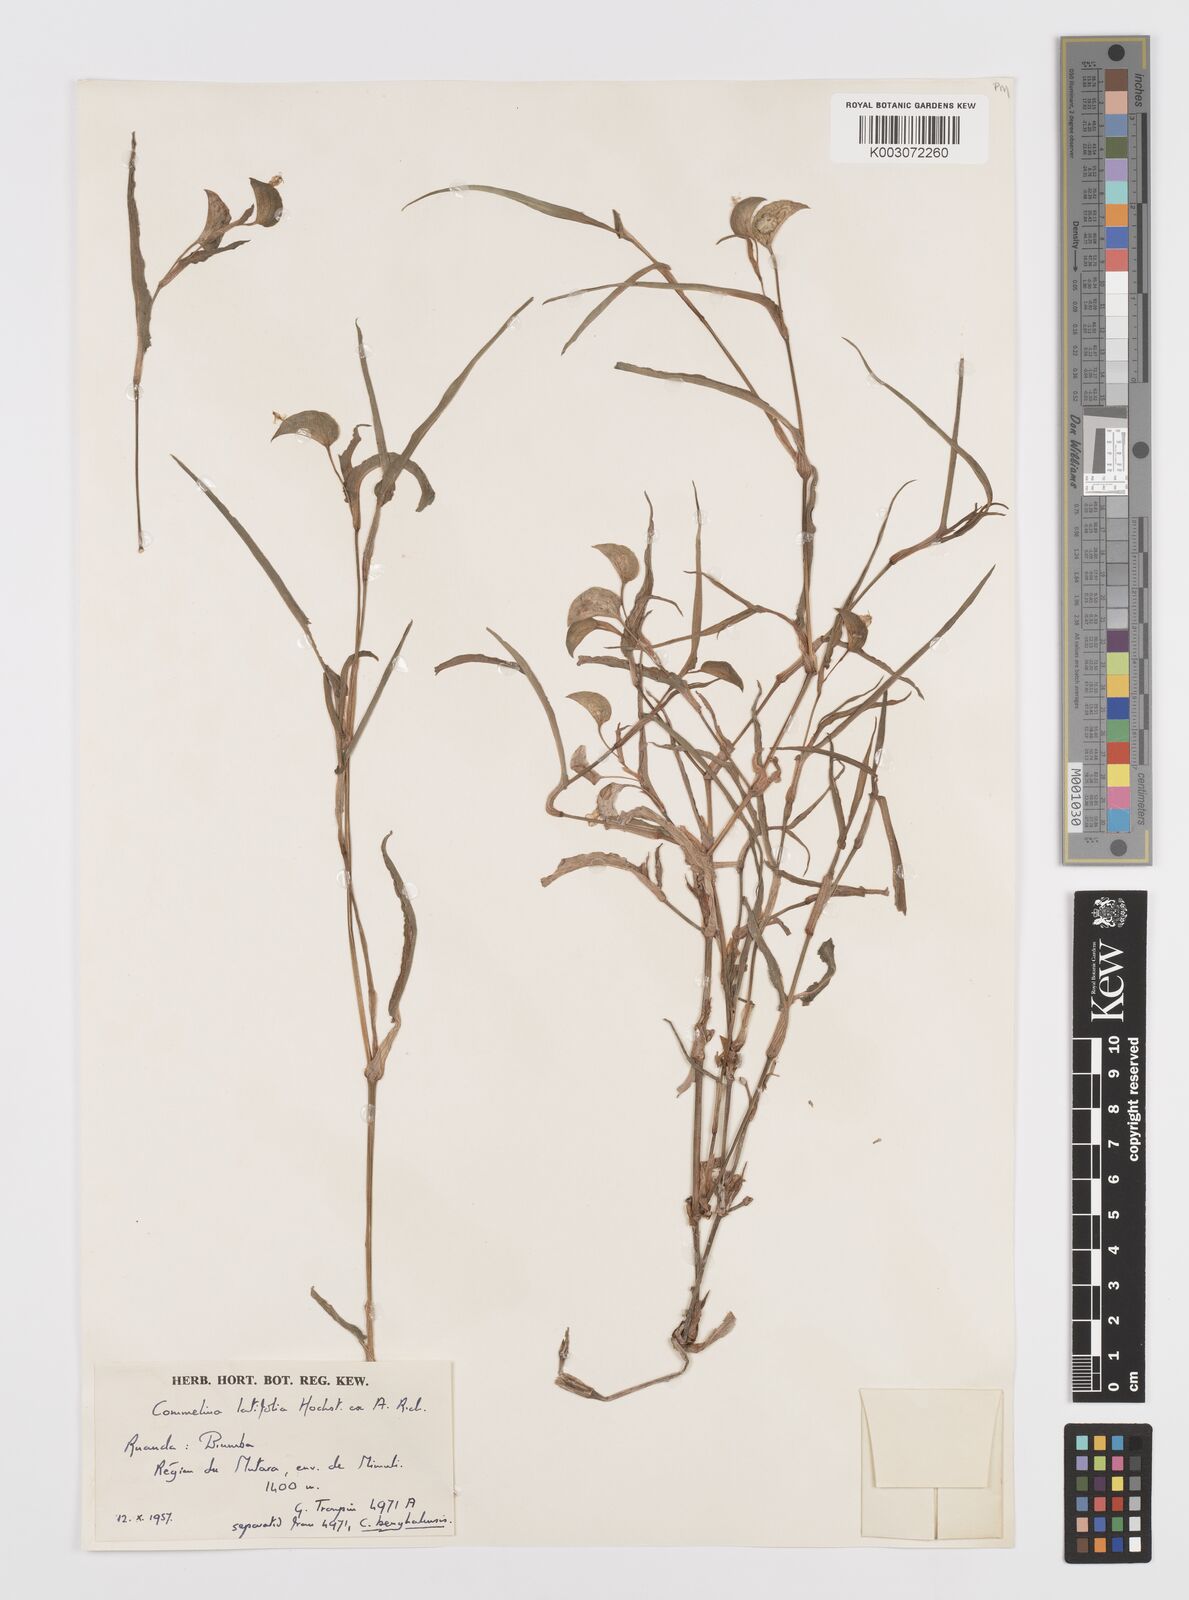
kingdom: Plantae
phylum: Tracheophyta
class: Liliopsida
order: Commelinales
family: Commelinaceae
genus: Commelina
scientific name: Commelina latifolia
